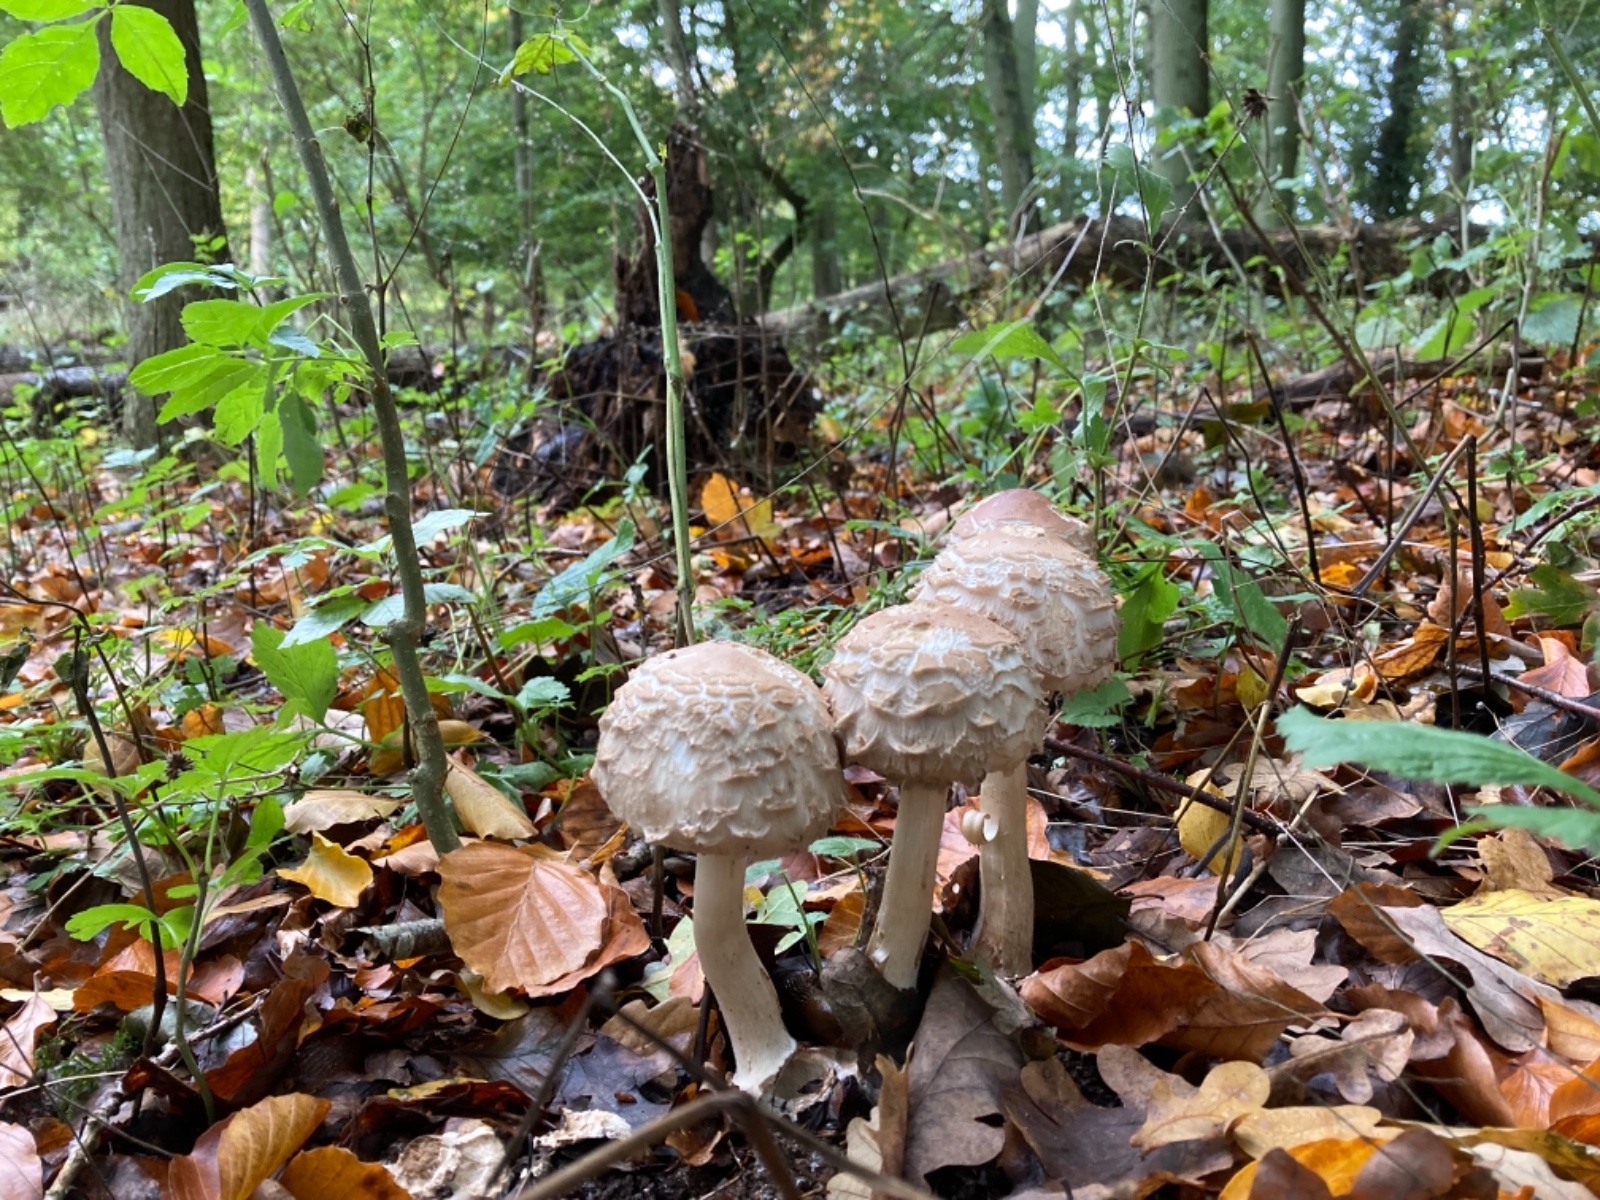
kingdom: Fungi
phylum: Basidiomycota
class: Agaricomycetes
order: Agaricales
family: Agaricaceae
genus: Chlorophyllum
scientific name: Chlorophyllum rhacodes
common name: ægte rabarberhat
